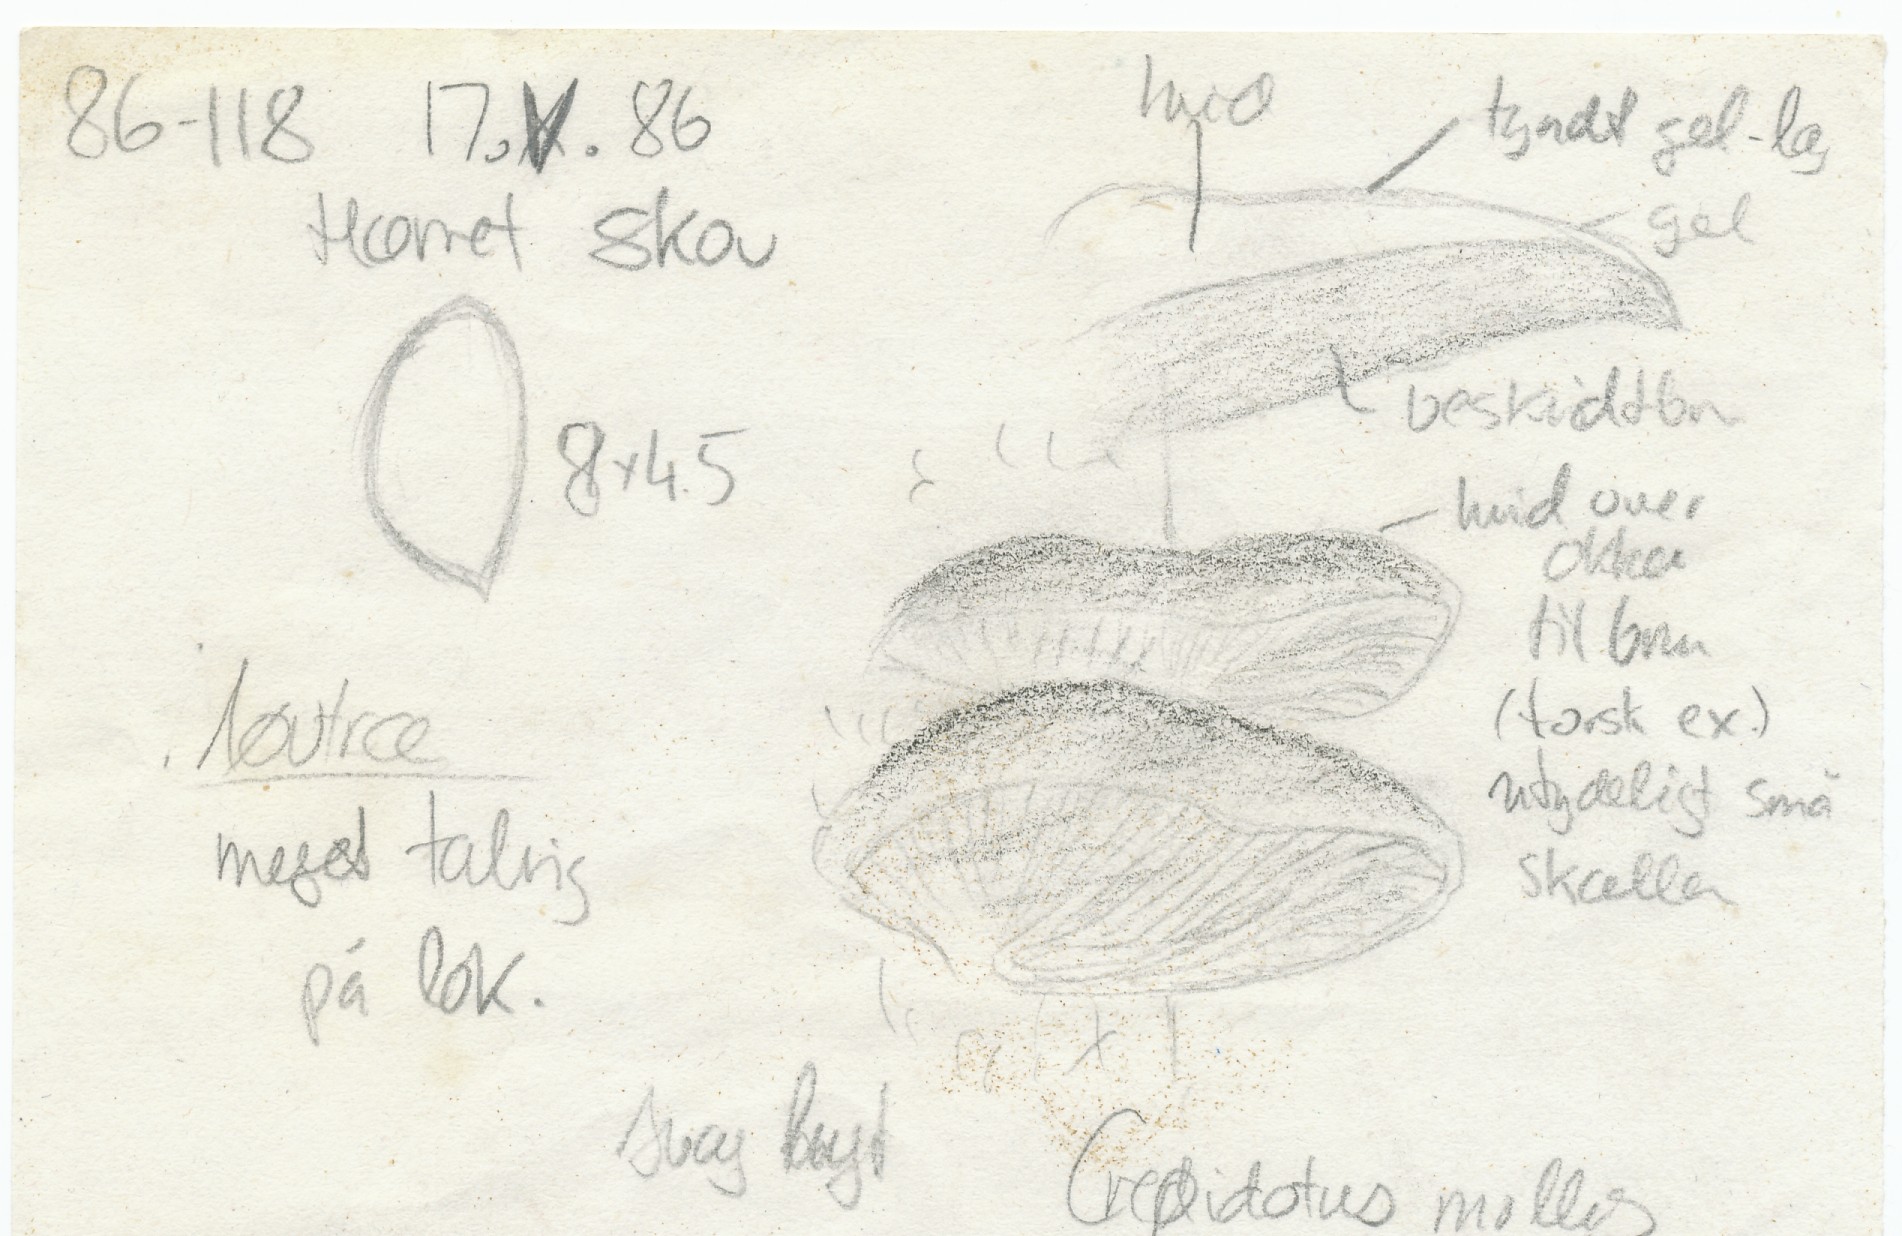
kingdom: Fungi
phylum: Basidiomycota
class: Agaricomycetes
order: Agaricales
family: Crepidotaceae
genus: Crepidotus
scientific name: Crepidotus mollis
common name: blød muslingesvamp
